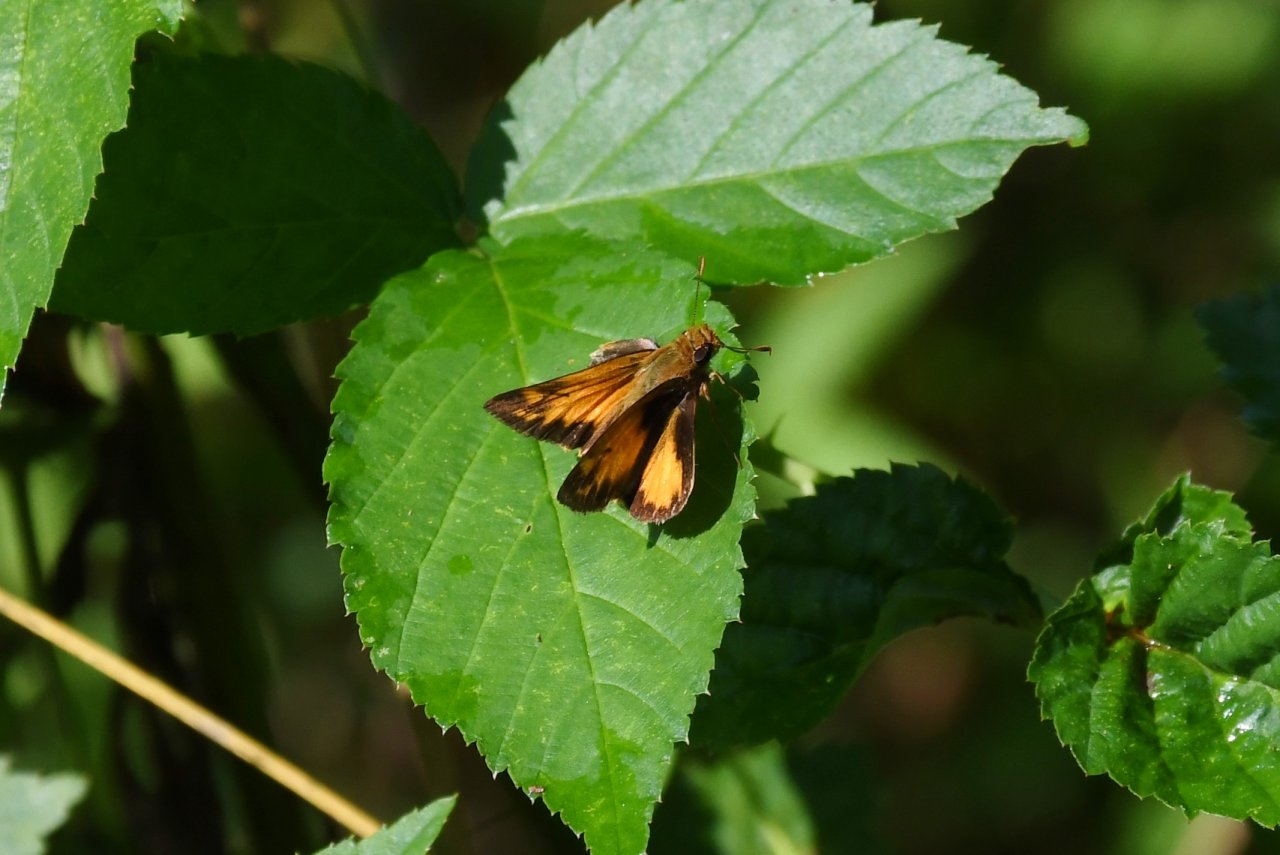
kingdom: Animalia
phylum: Arthropoda
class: Insecta
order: Lepidoptera
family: Hesperiidae
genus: Lon
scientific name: Lon zabulon
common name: Zabulon Skipper
